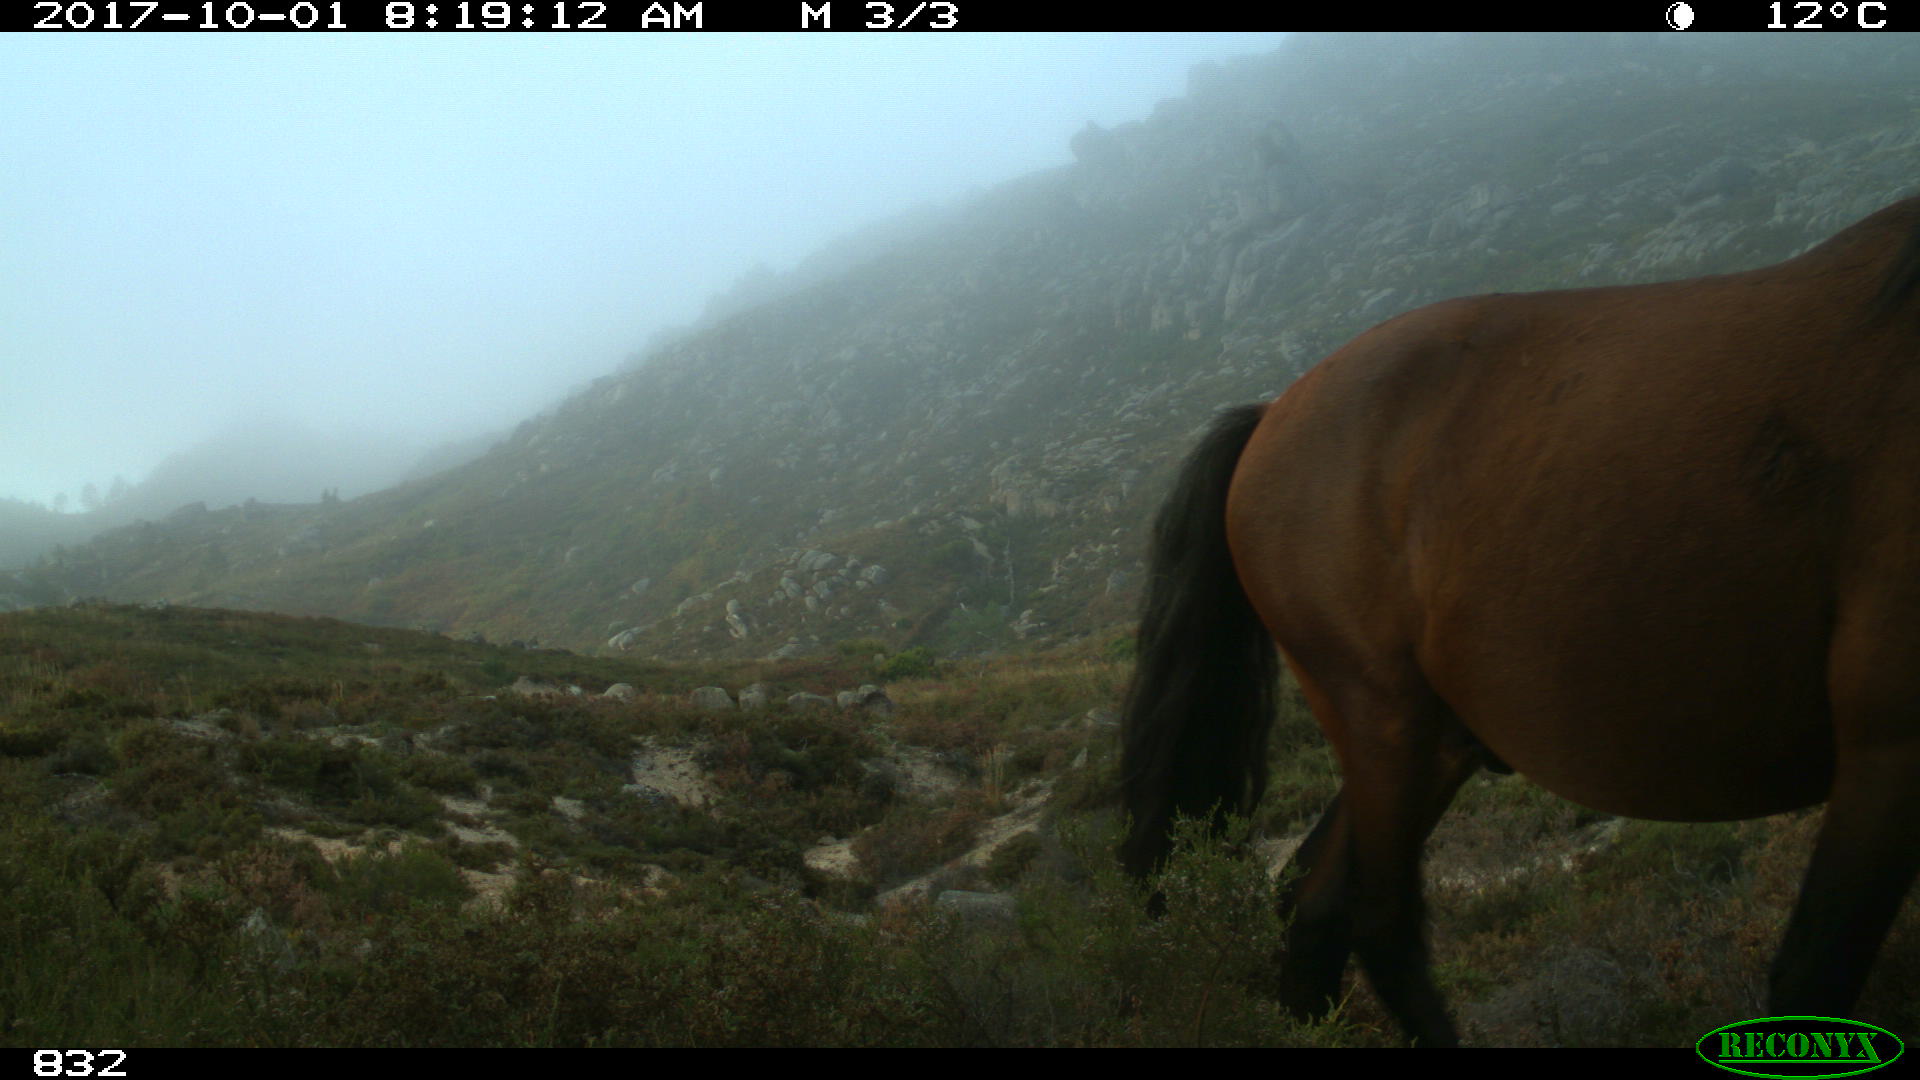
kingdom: Animalia
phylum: Chordata
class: Mammalia
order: Perissodactyla
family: Equidae
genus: Equus
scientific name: Equus caballus
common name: Horse
